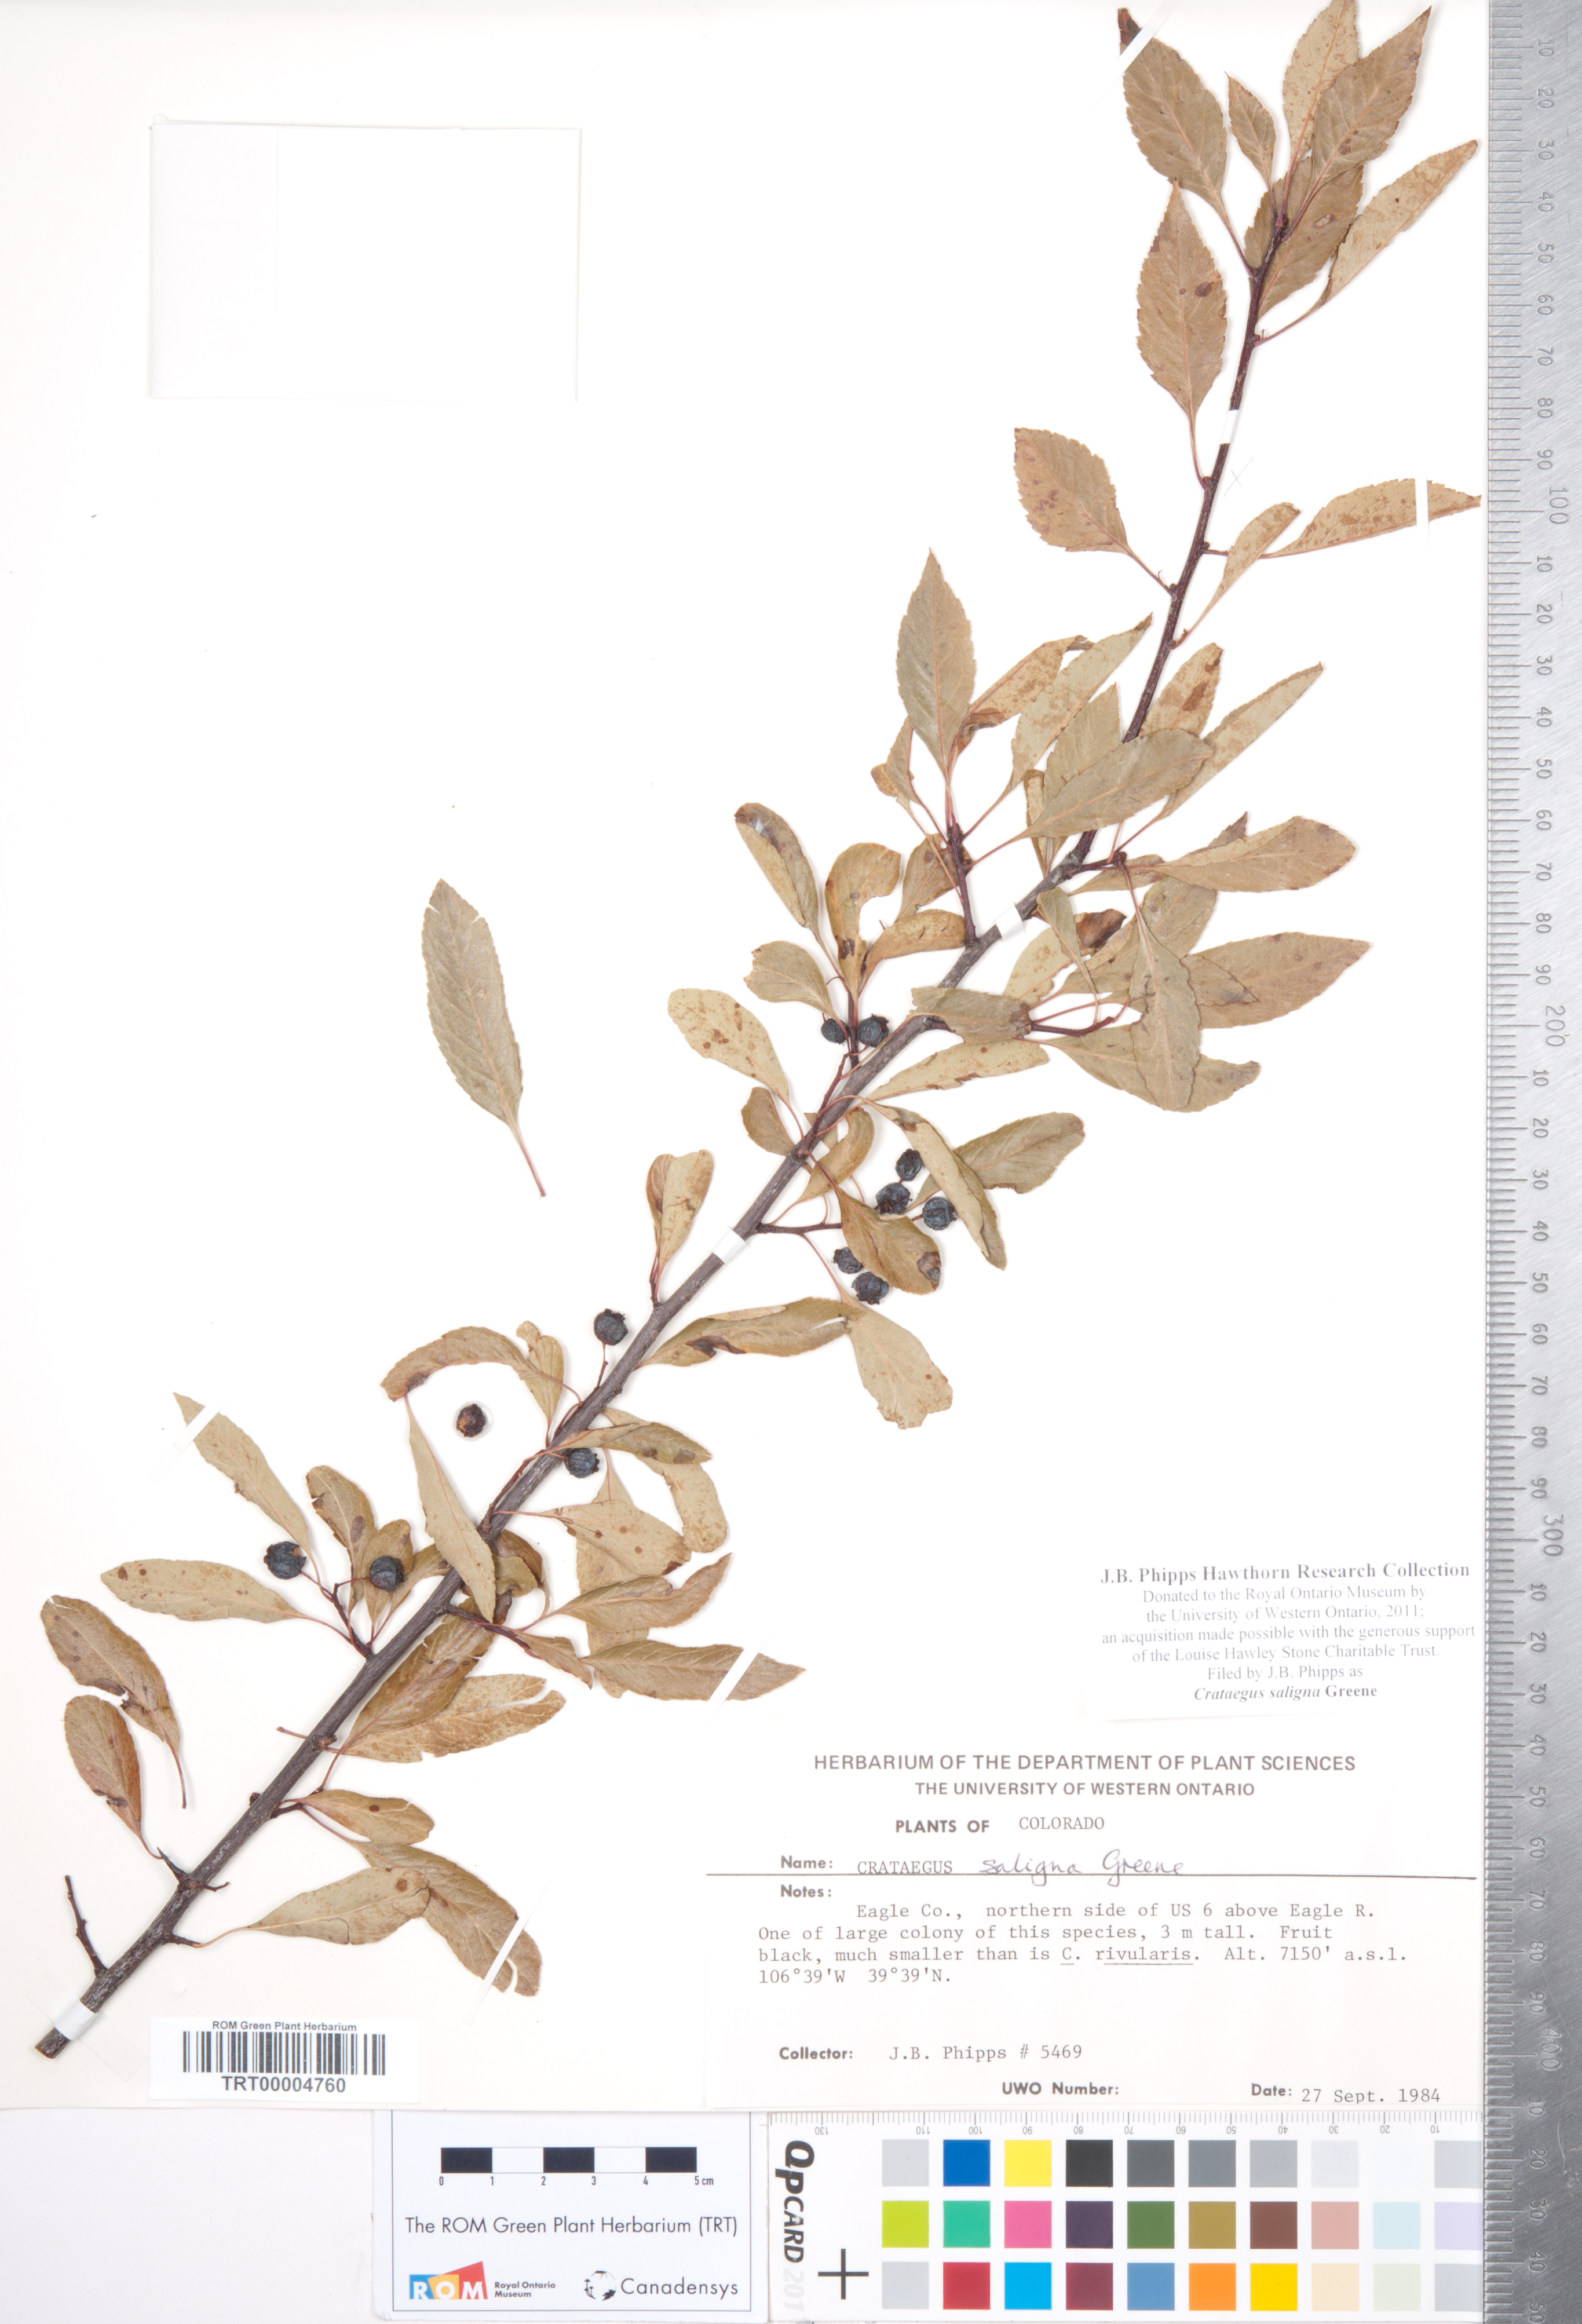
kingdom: Plantae
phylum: Tracheophyta
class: Magnoliopsida
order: Rosales
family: Rosaceae
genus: Crataegus
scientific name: Crataegus saligna
